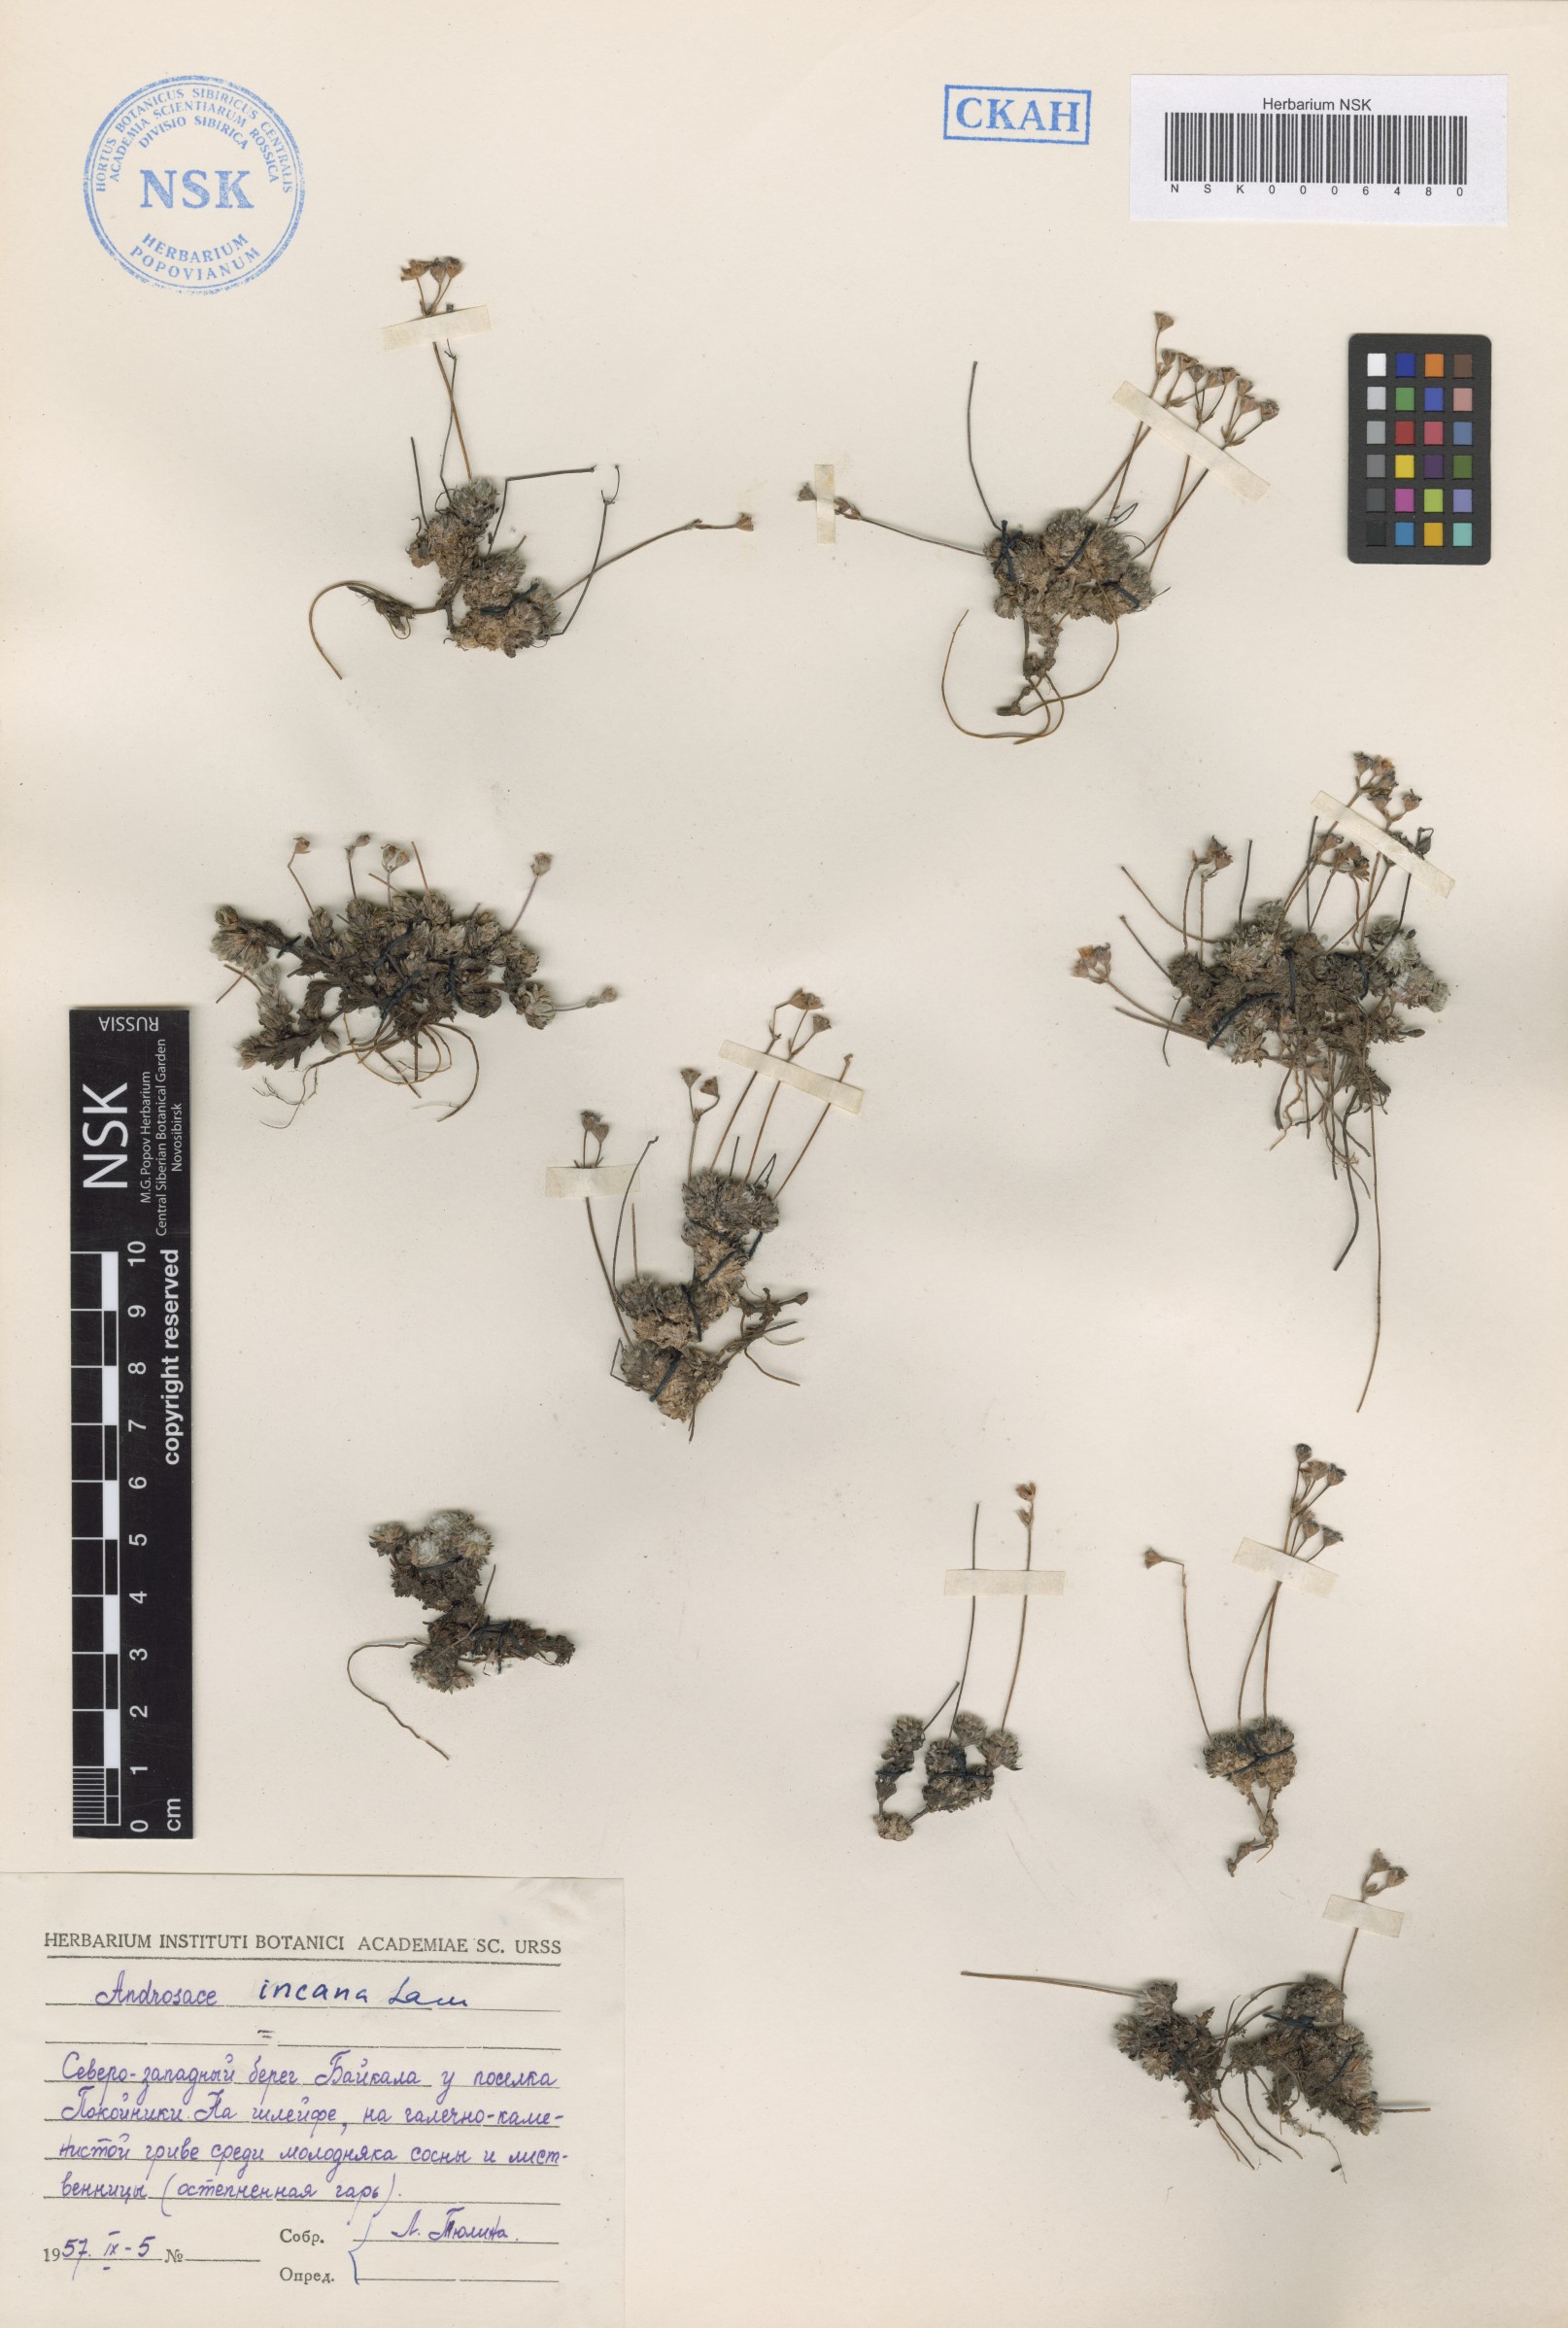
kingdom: Plantae
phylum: Tracheophyta
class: Magnoliopsida
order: Ericales
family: Primulaceae
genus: Androsace
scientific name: Androsace incana
